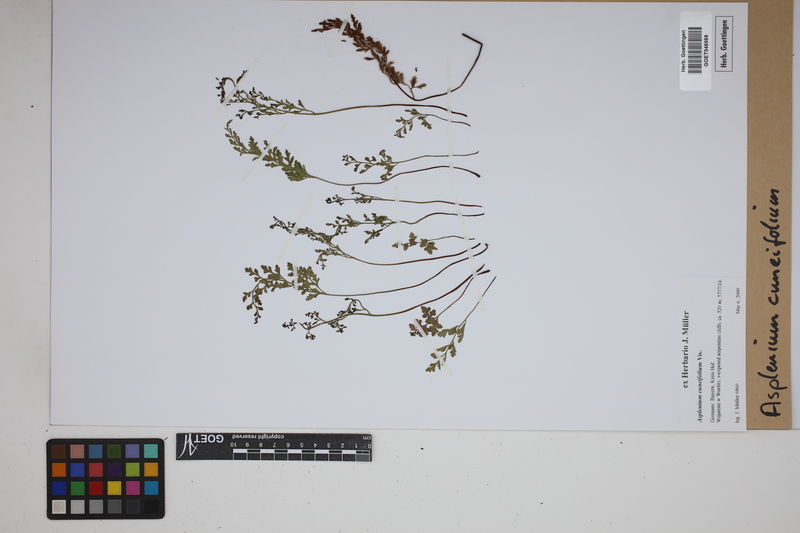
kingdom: Plantae
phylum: Tracheophyta
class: Polypodiopsida
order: Polypodiales
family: Aspleniaceae
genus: Asplenium
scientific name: Asplenium cuneifolium
